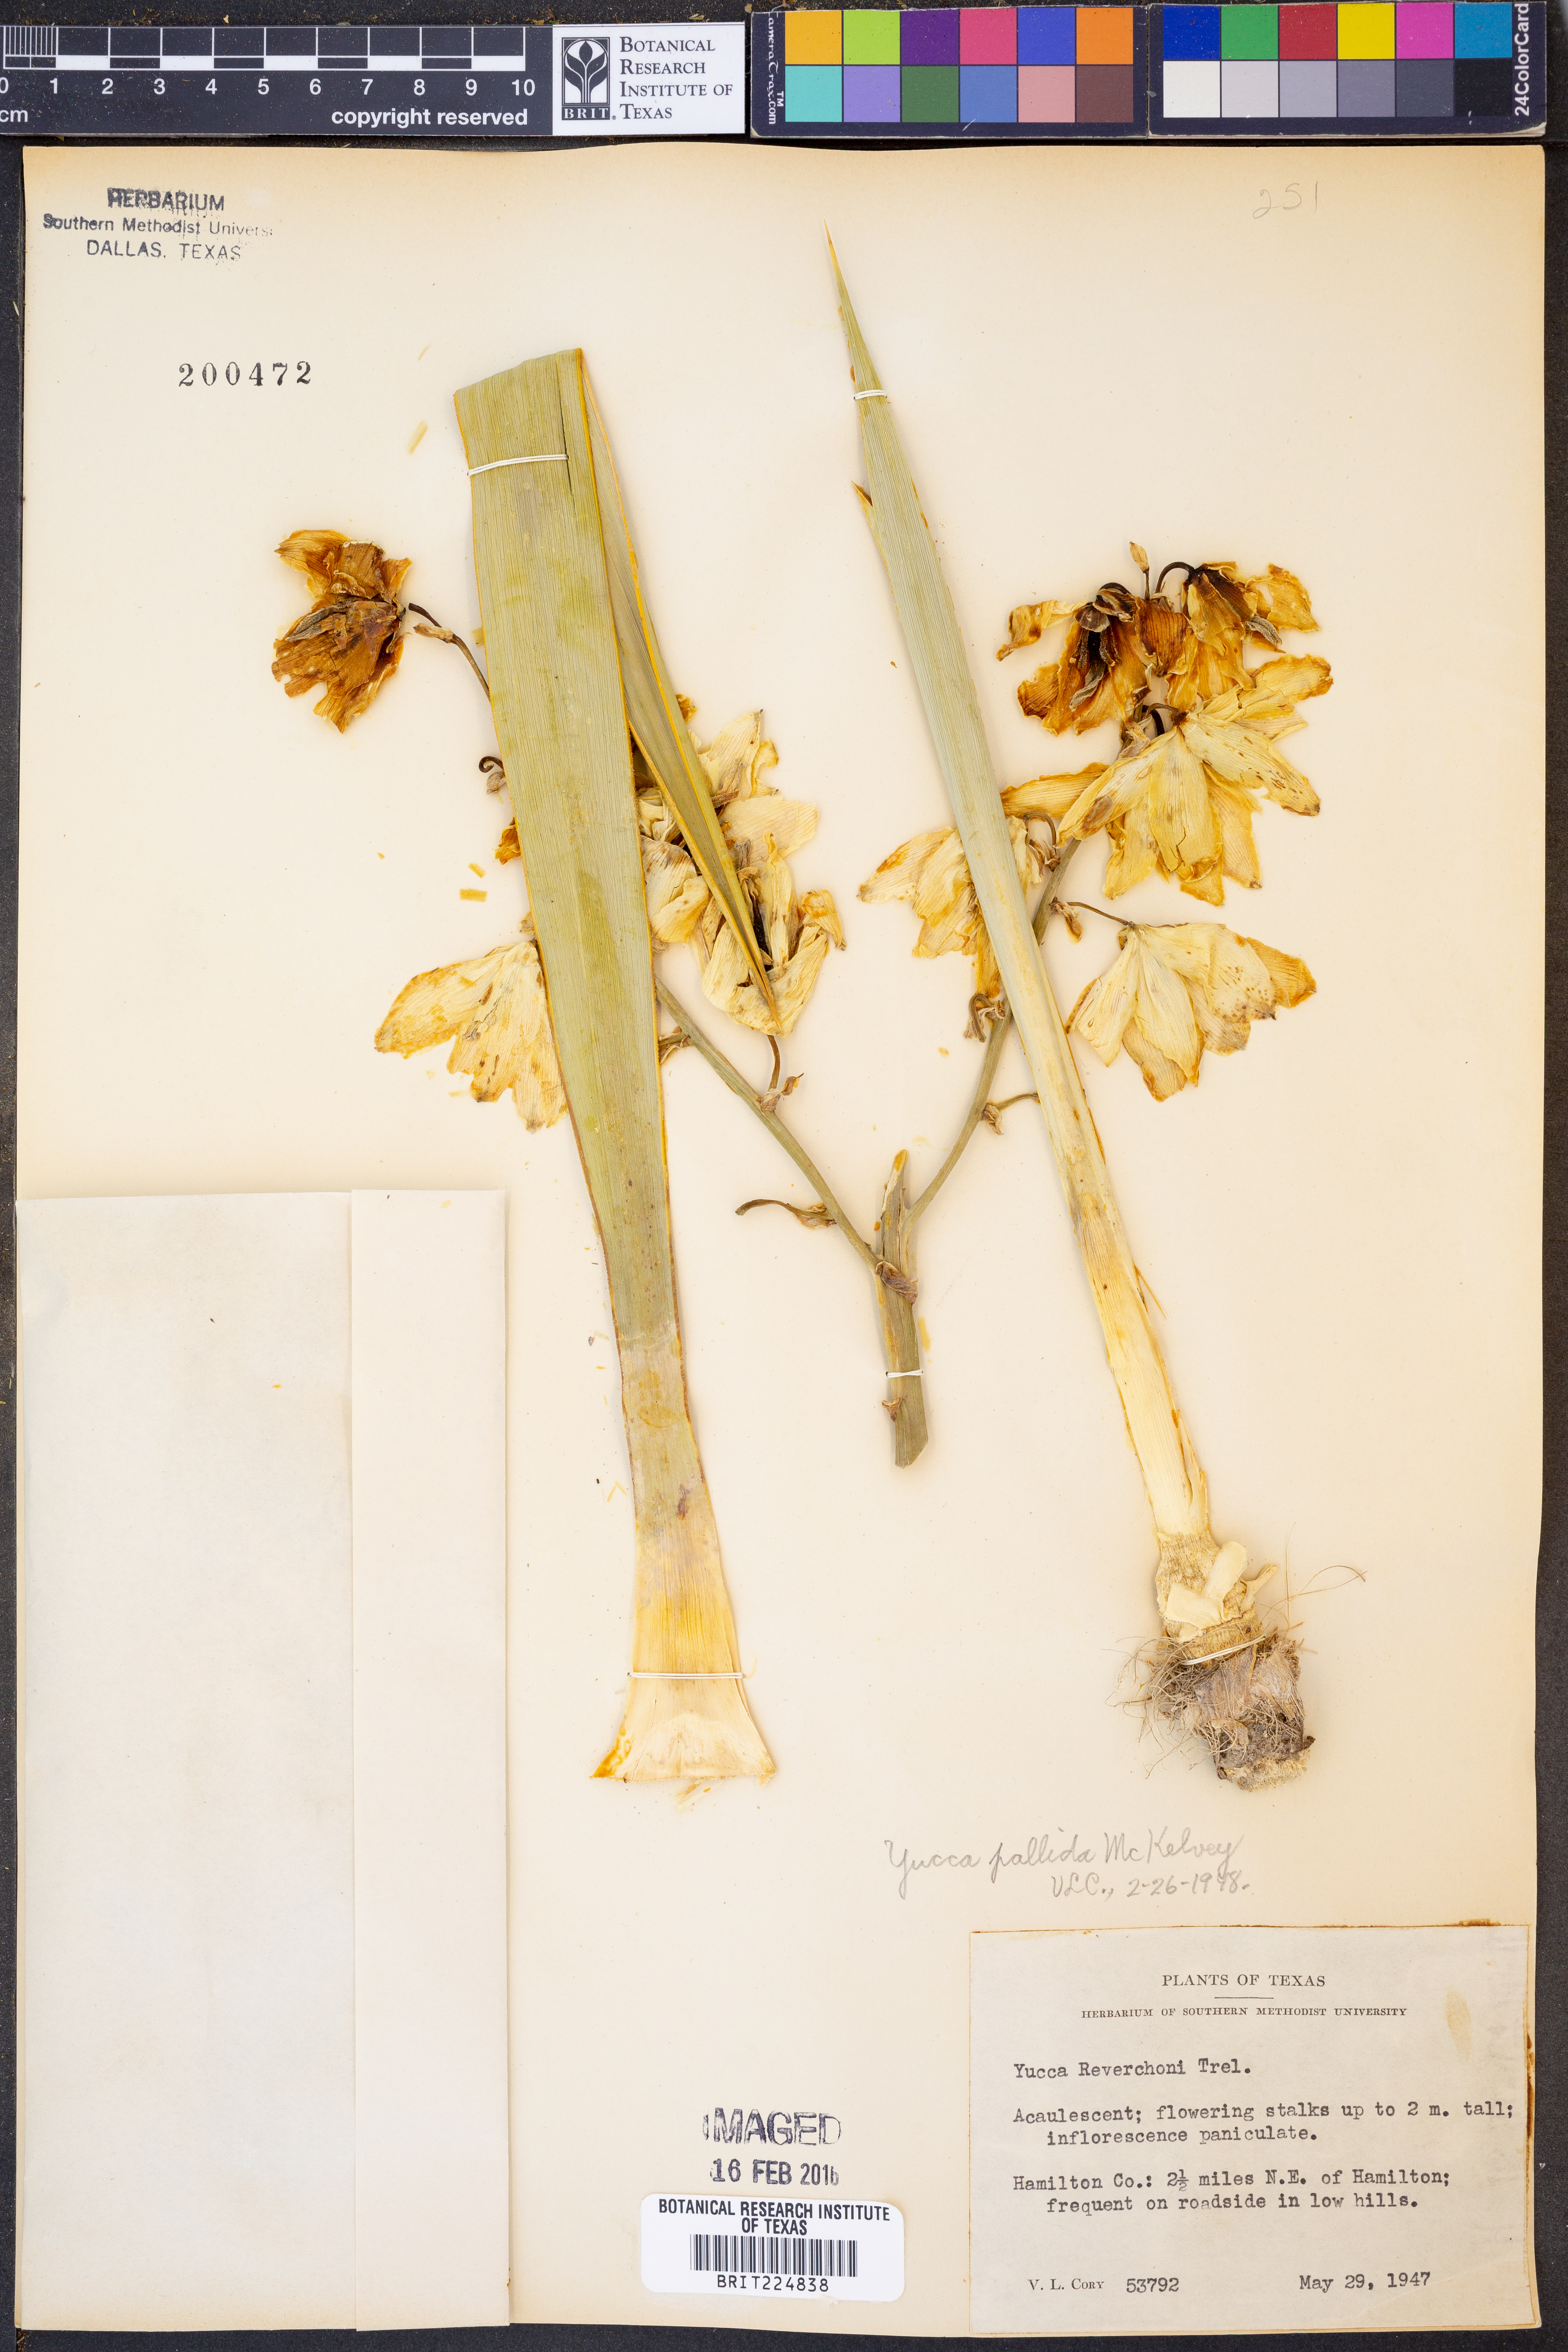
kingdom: Plantae
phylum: Tracheophyta
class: Liliopsida
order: Asparagales
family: Asparagaceae
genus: Yucca
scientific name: Yucca pallida
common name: Pale leaf yucca
